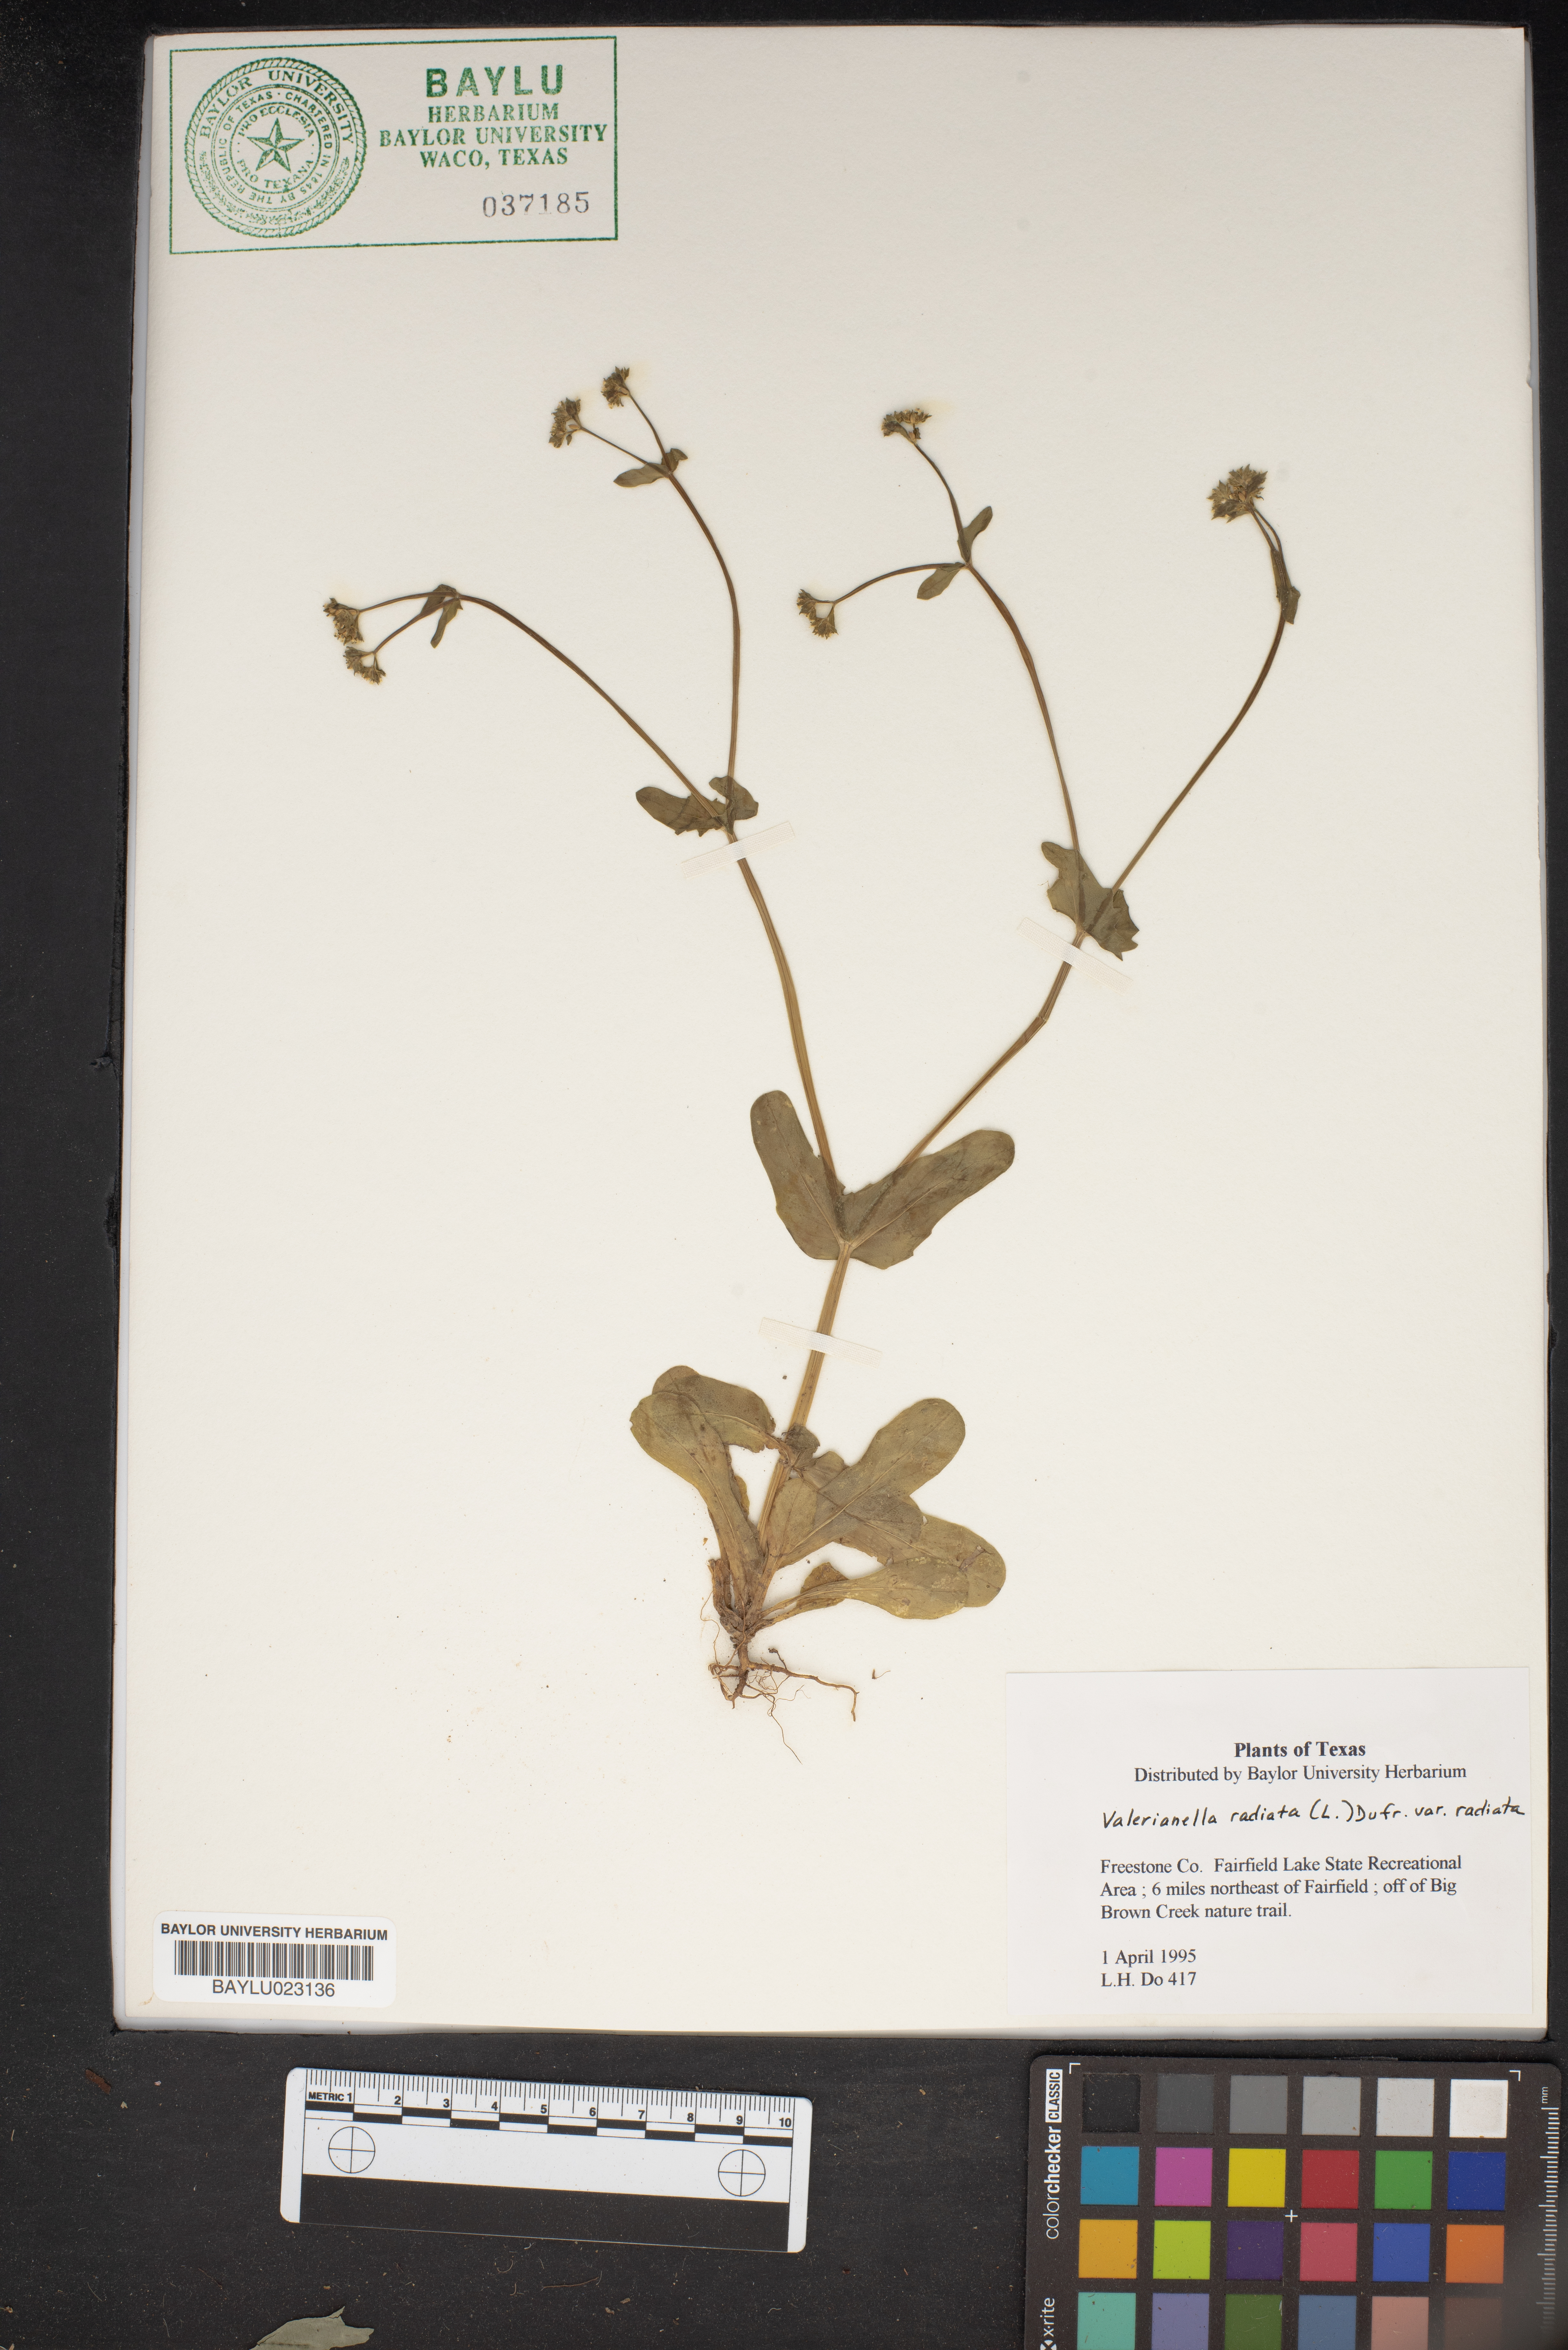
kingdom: Plantae
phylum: Tracheophyta
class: Magnoliopsida
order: Dipsacales
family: Caprifoliaceae
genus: Valerianella
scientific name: Valerianella radiata
